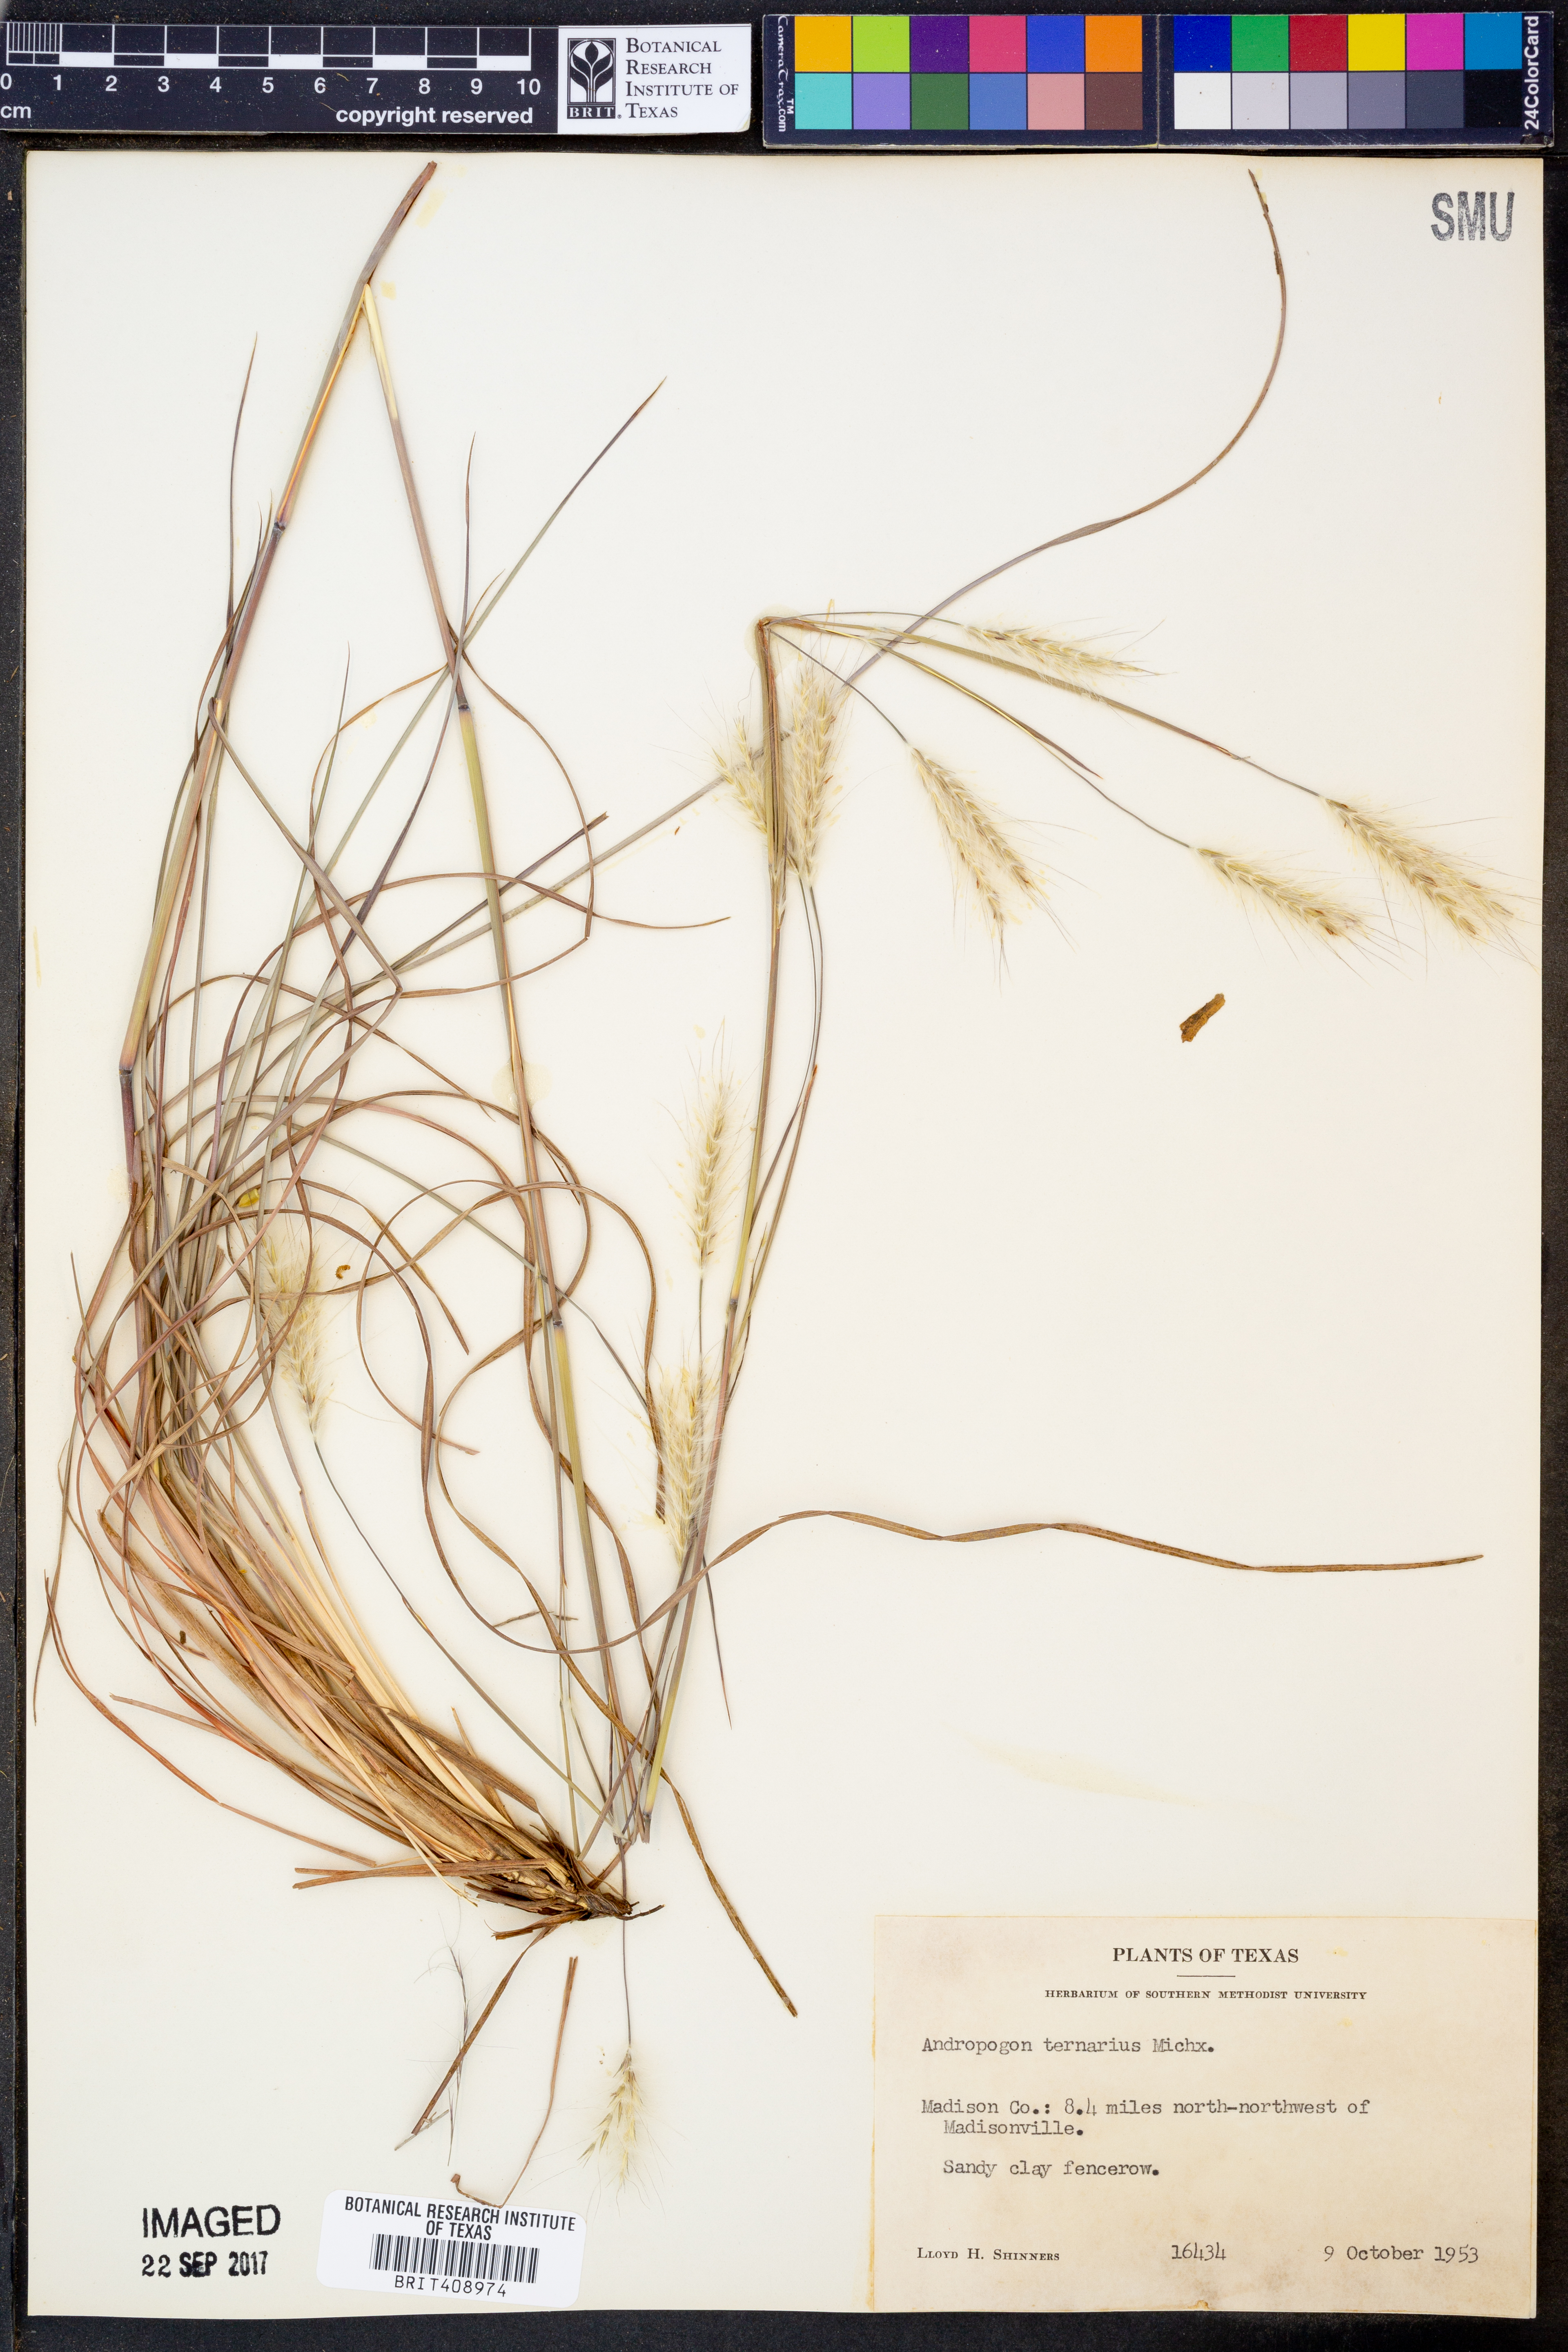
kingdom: Plantae
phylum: Tracheophyta
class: Liliopsida
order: Poales
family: Poaceae
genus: Andropogon
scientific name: Andropogon ternarius
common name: Split bluestem
